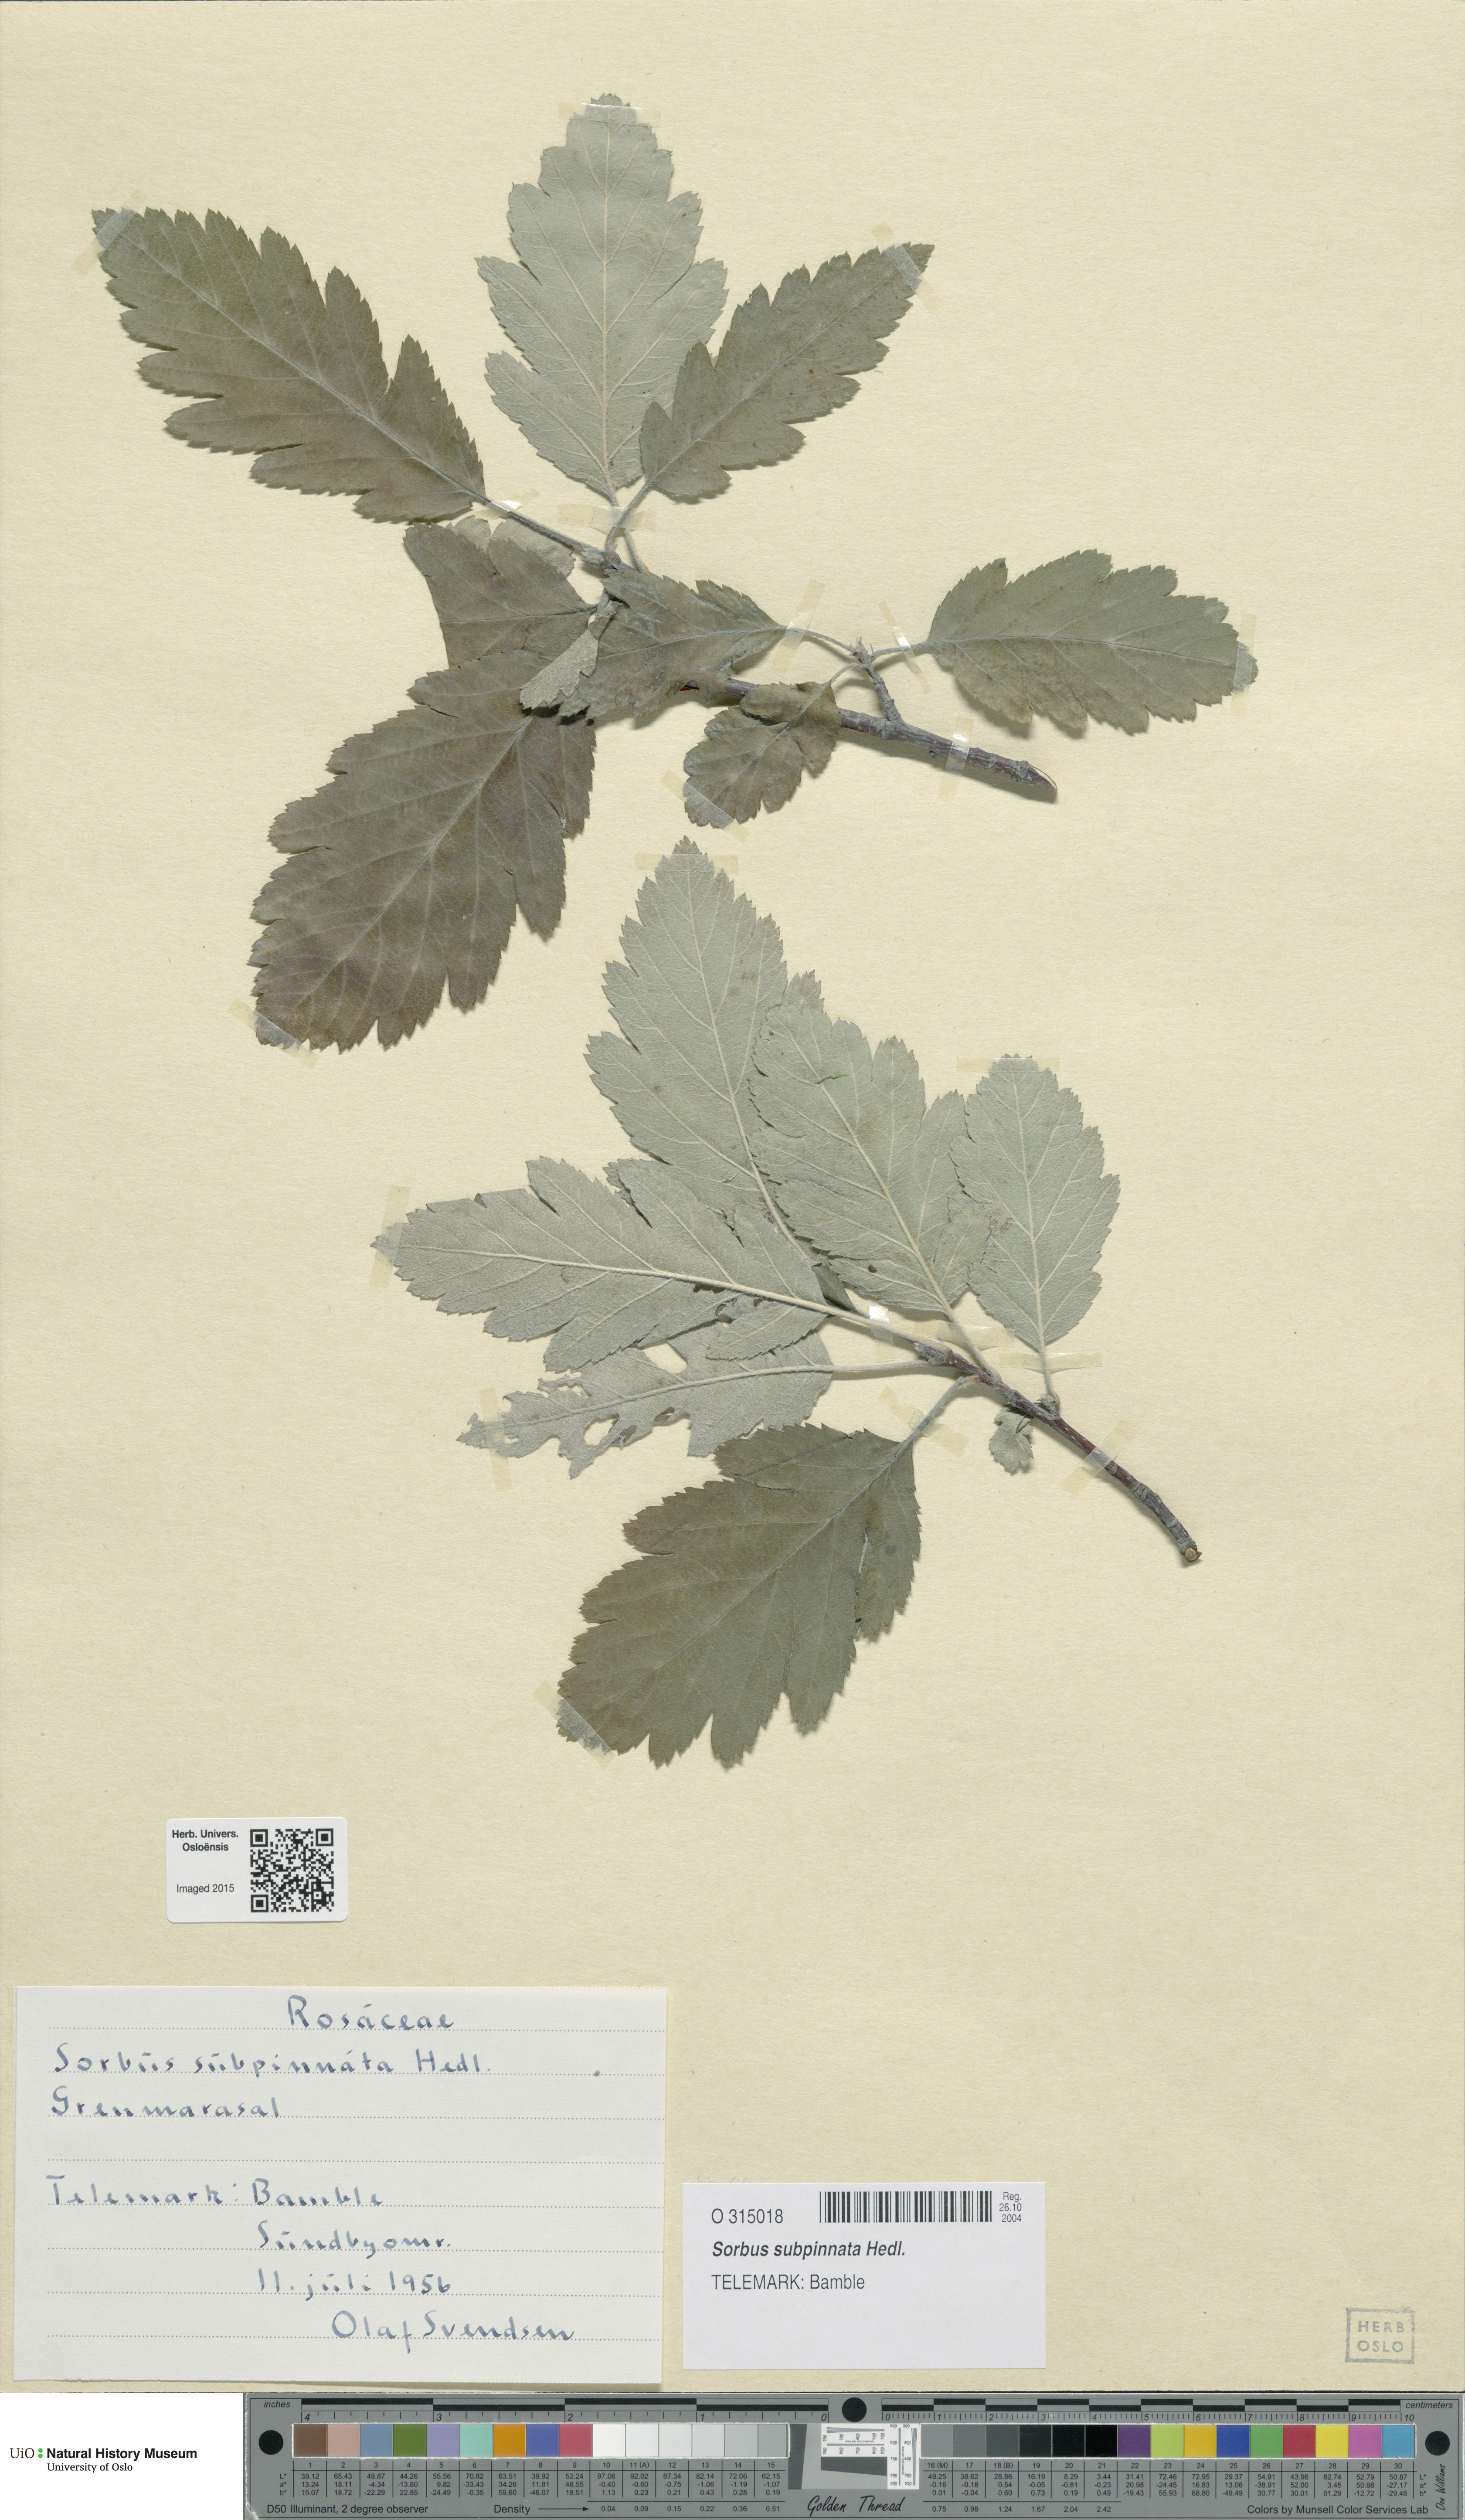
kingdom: Plantae
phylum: Tracheophyta
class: Magnoliopsida
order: Rosales
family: Rosaceae
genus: Hedlundia
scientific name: Hedlundia subpinnata
